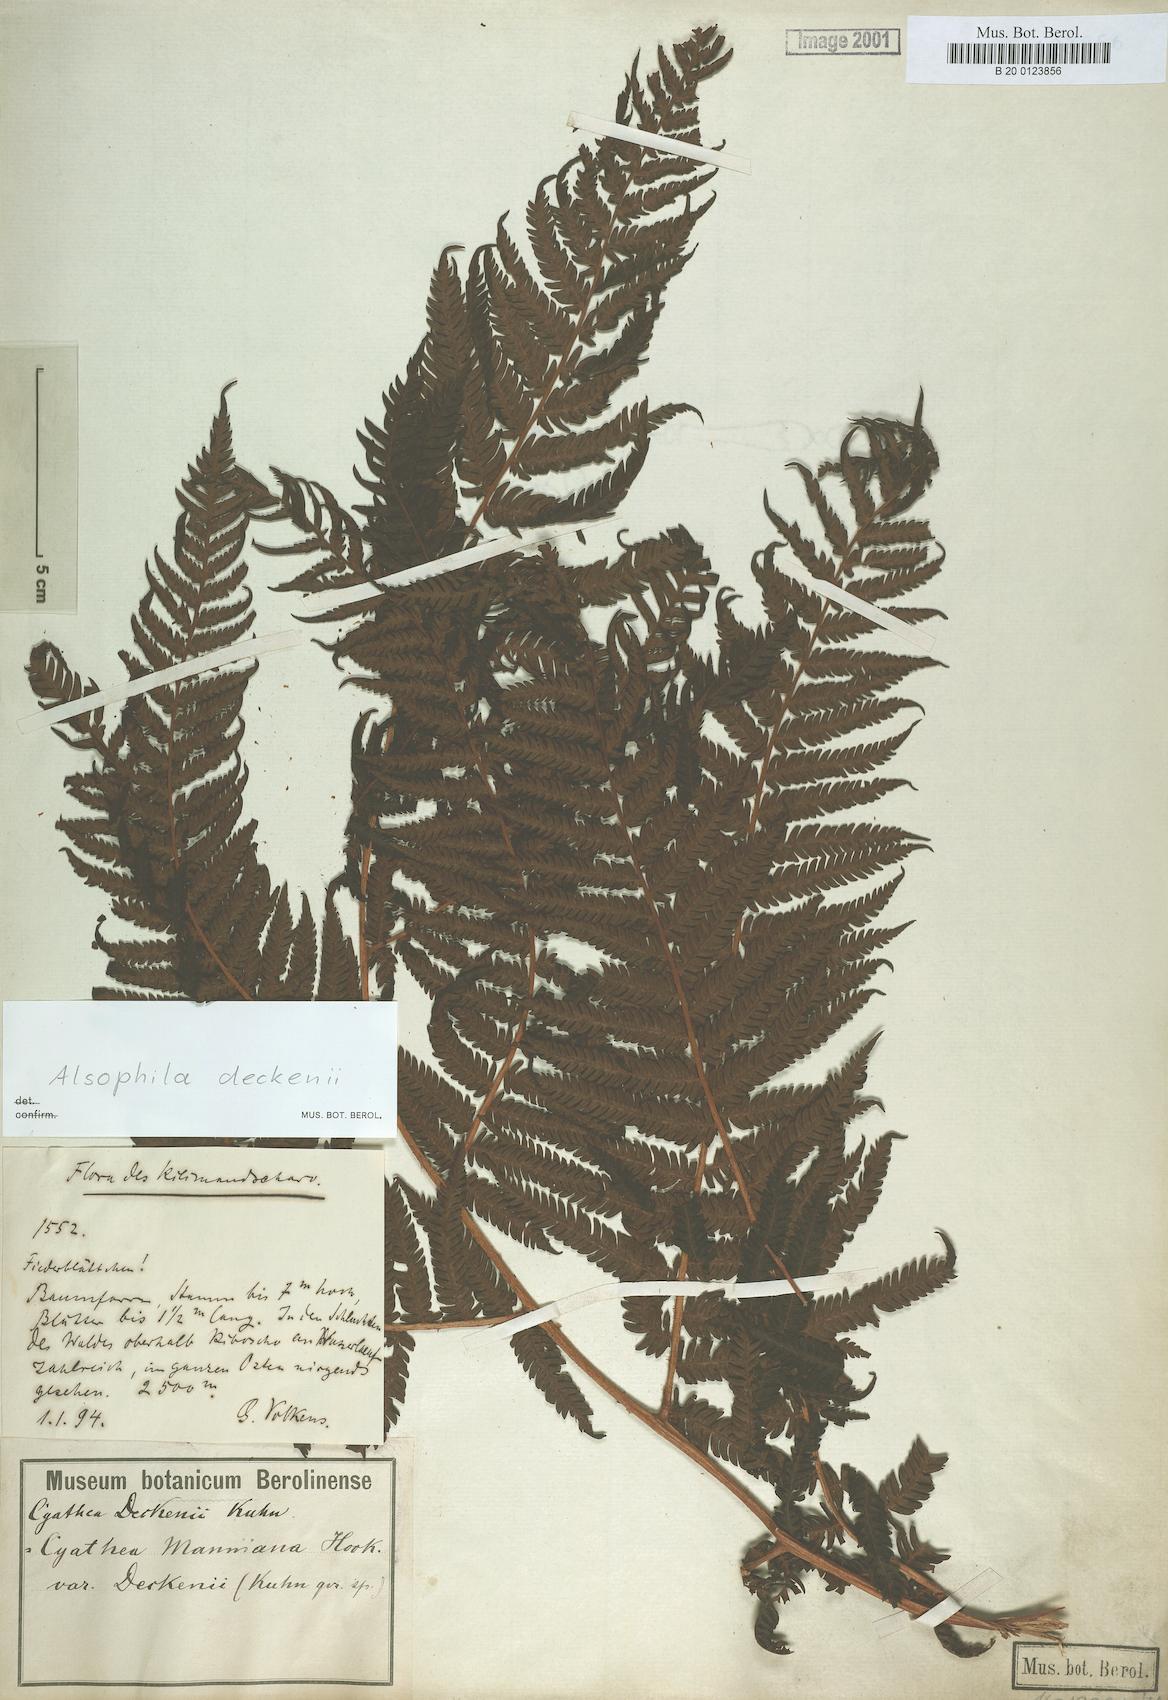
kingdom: Plantae
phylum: Tracheophyta
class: Polypodiopsida
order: Cyatheales
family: Cyatheaceae
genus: Alsophila
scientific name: Alsophila deckenii
